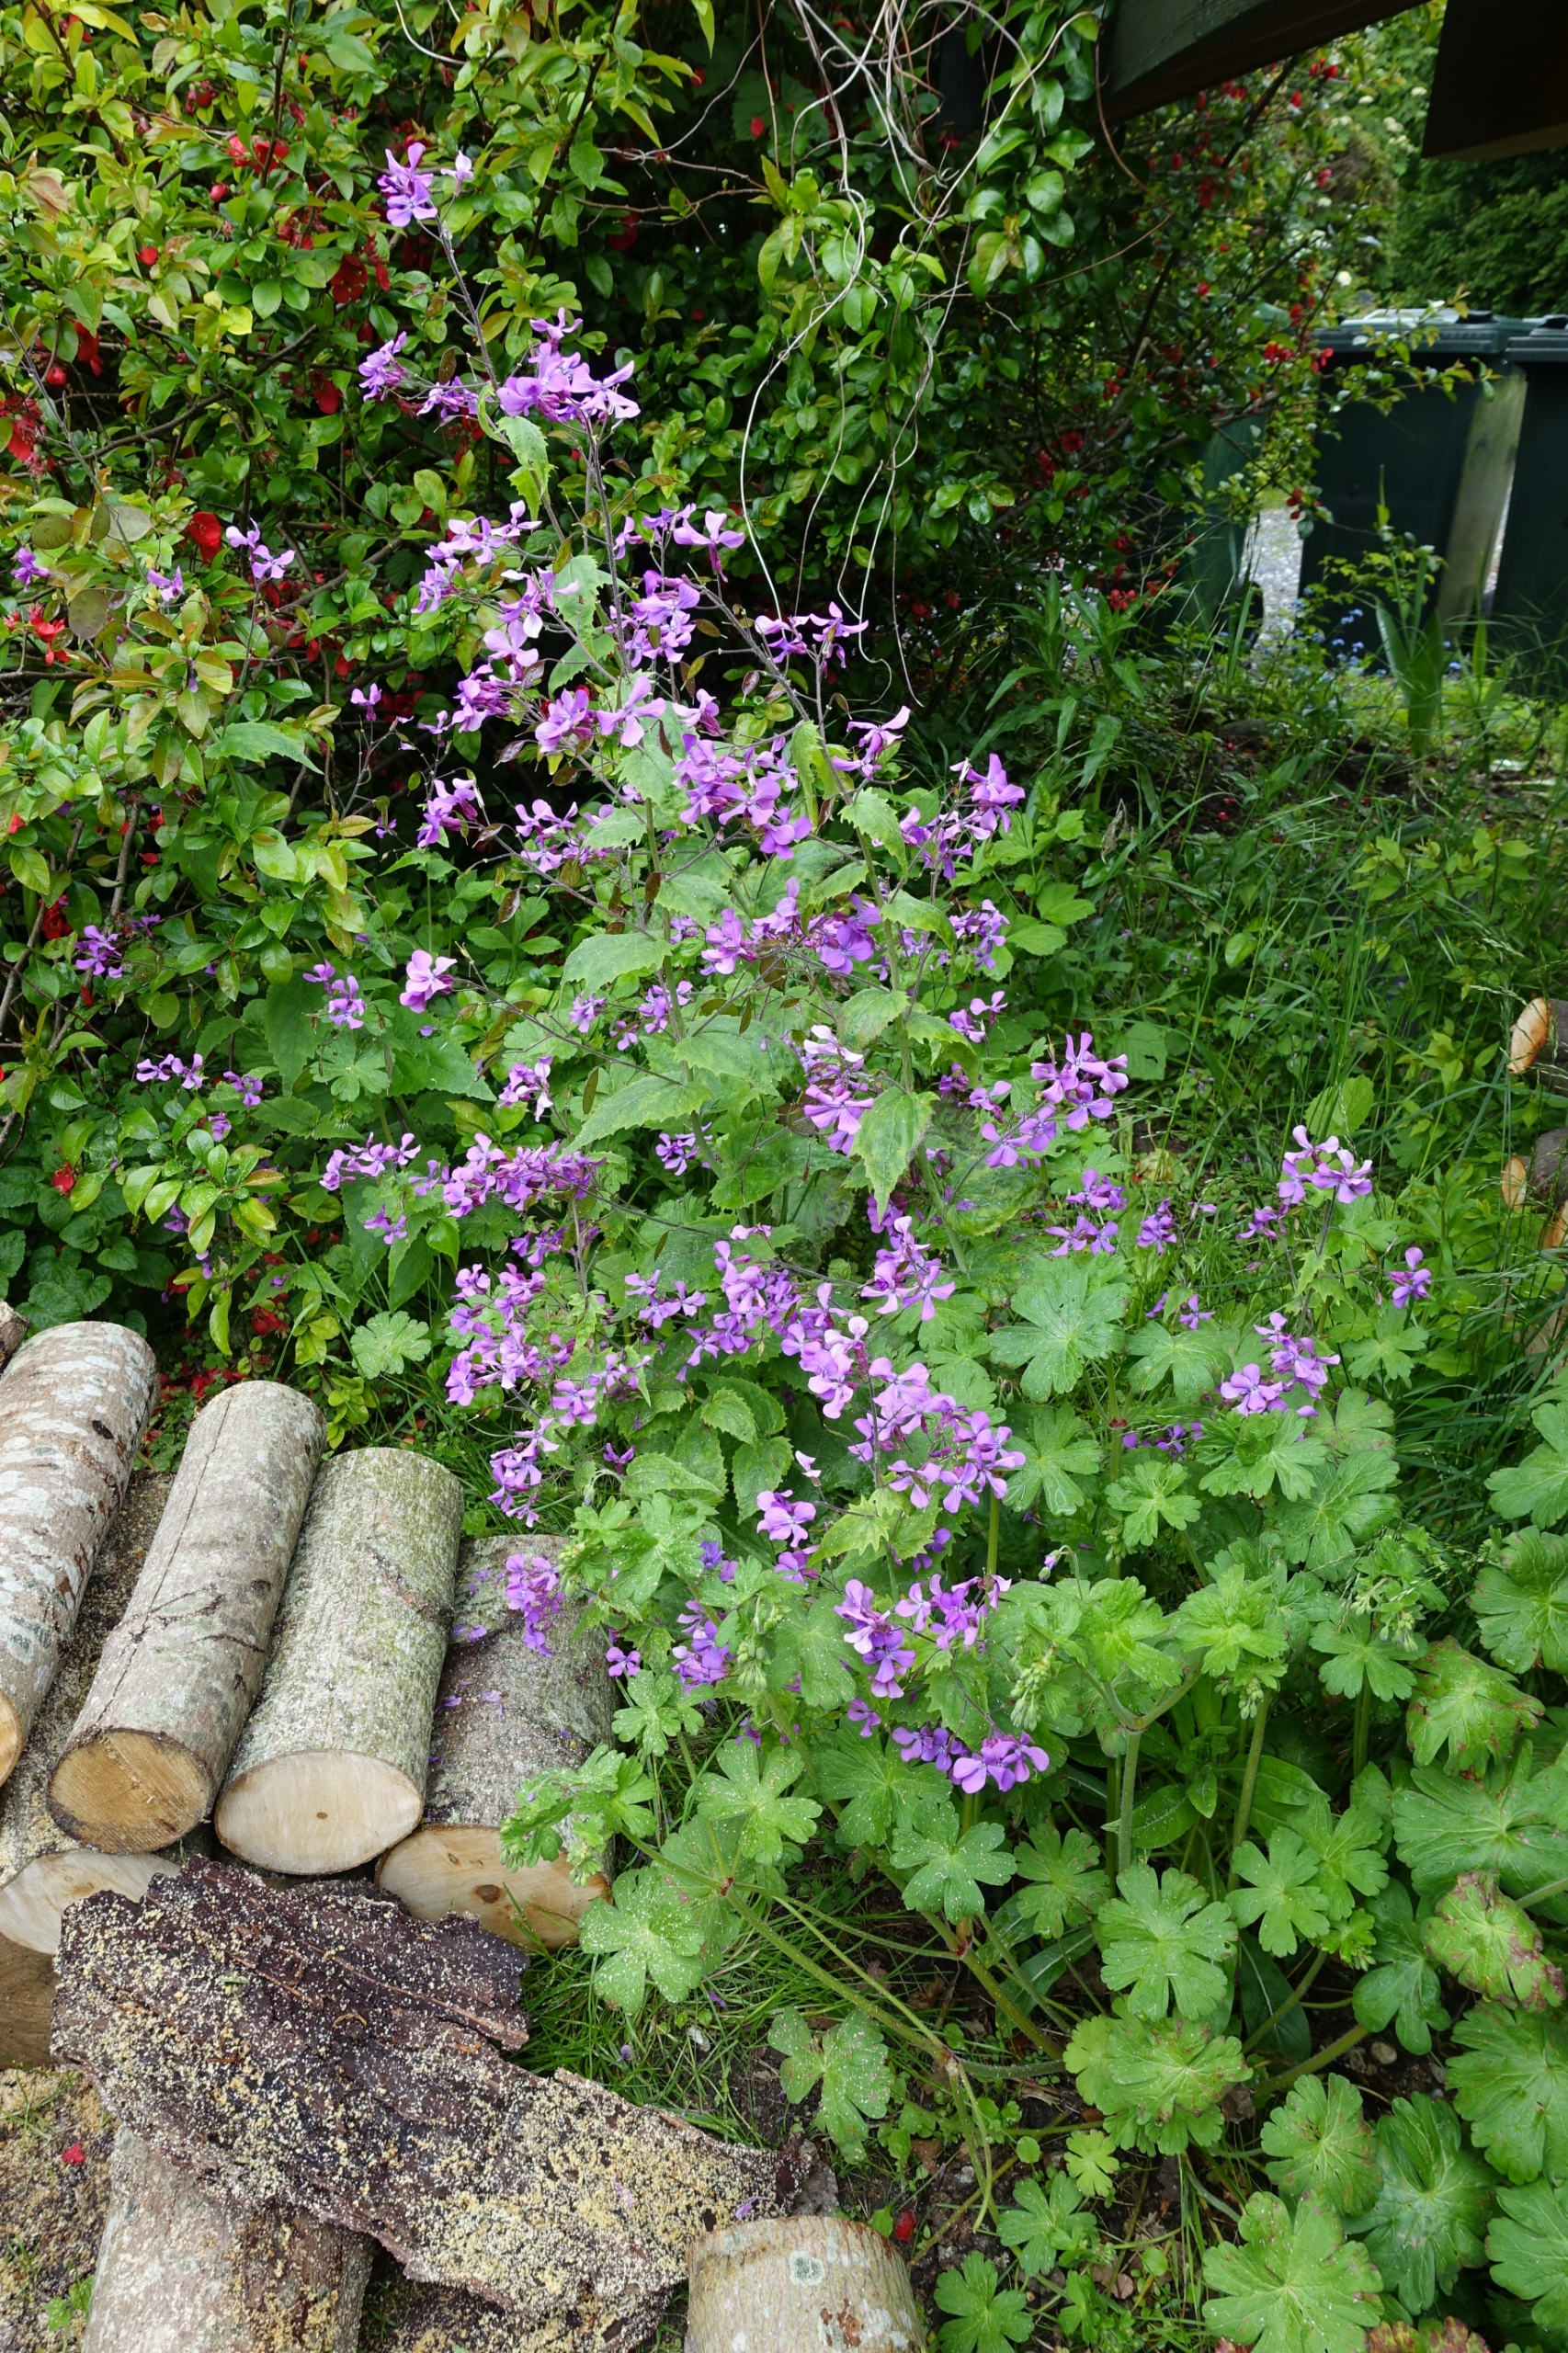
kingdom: Plantae
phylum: Tracheophyta
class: Magnoliopsida
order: Brassicales
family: Brassicaceae
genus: Lunaria
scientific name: Lunaria annua
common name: Judaspenge
